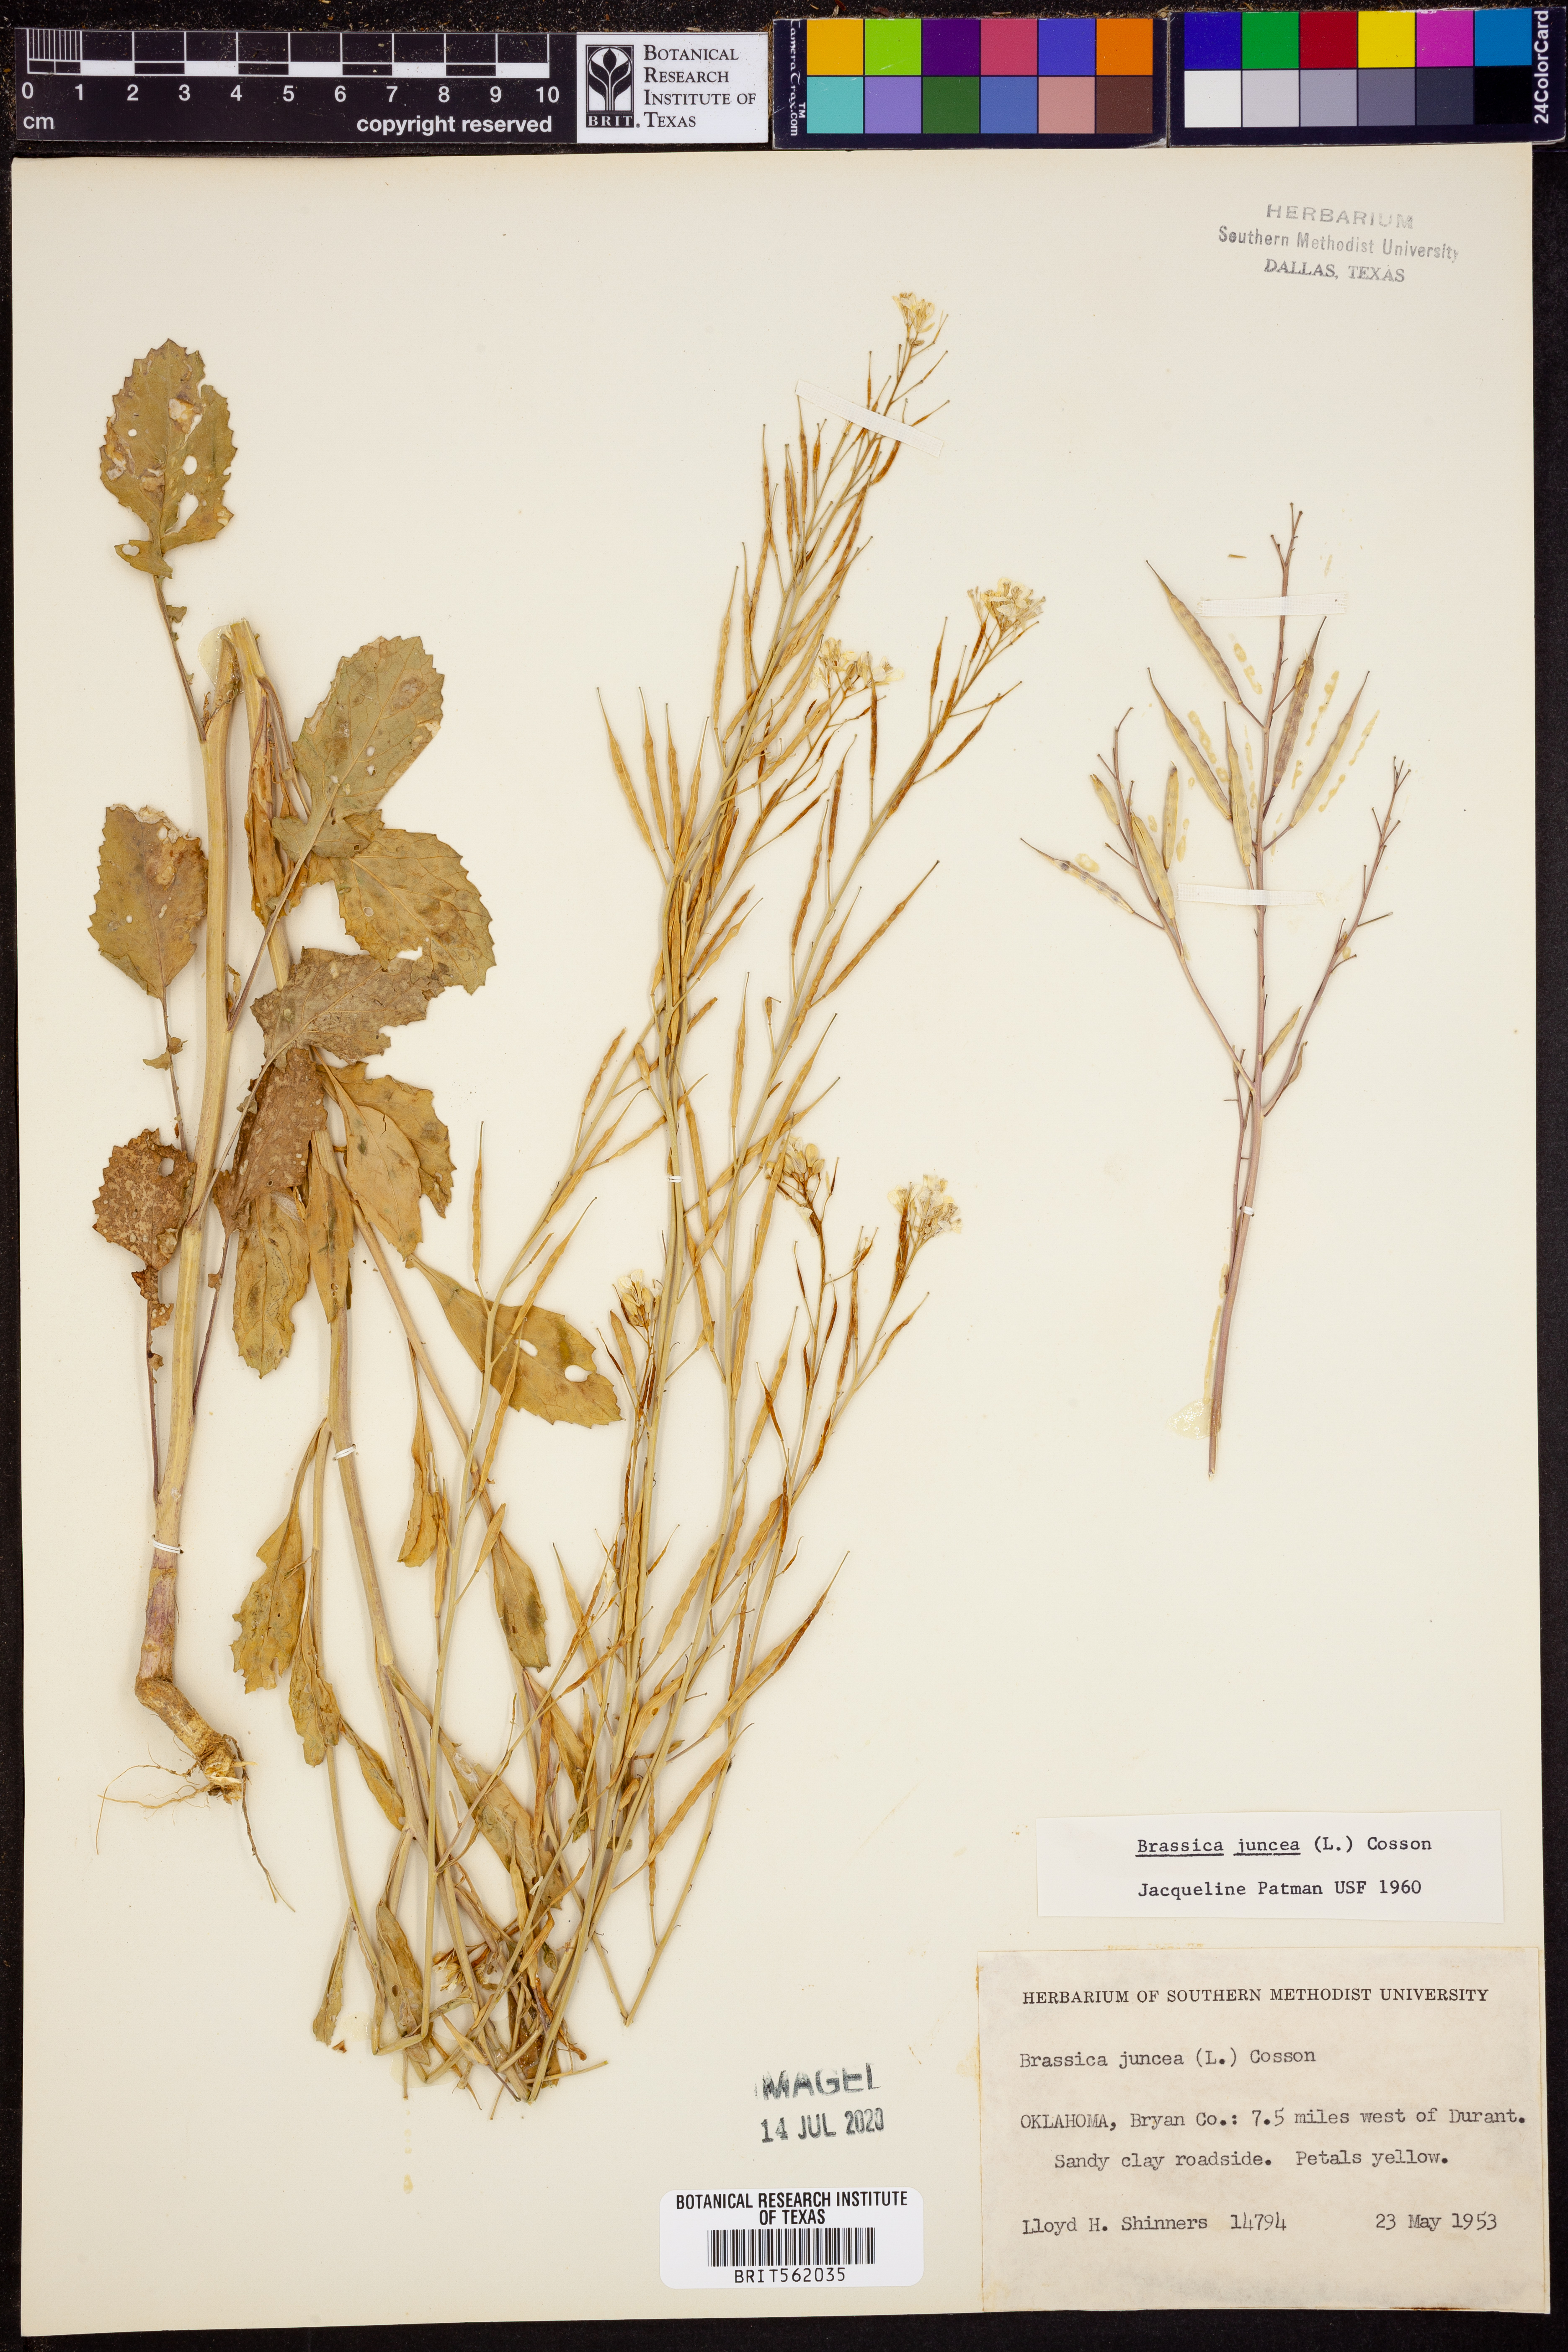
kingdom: Plantae
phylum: Tracheophyta
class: Magnoliopsida
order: Brassicales
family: Brassicaceae
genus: Brassica
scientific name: Brassica juncea
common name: Brown mustard
